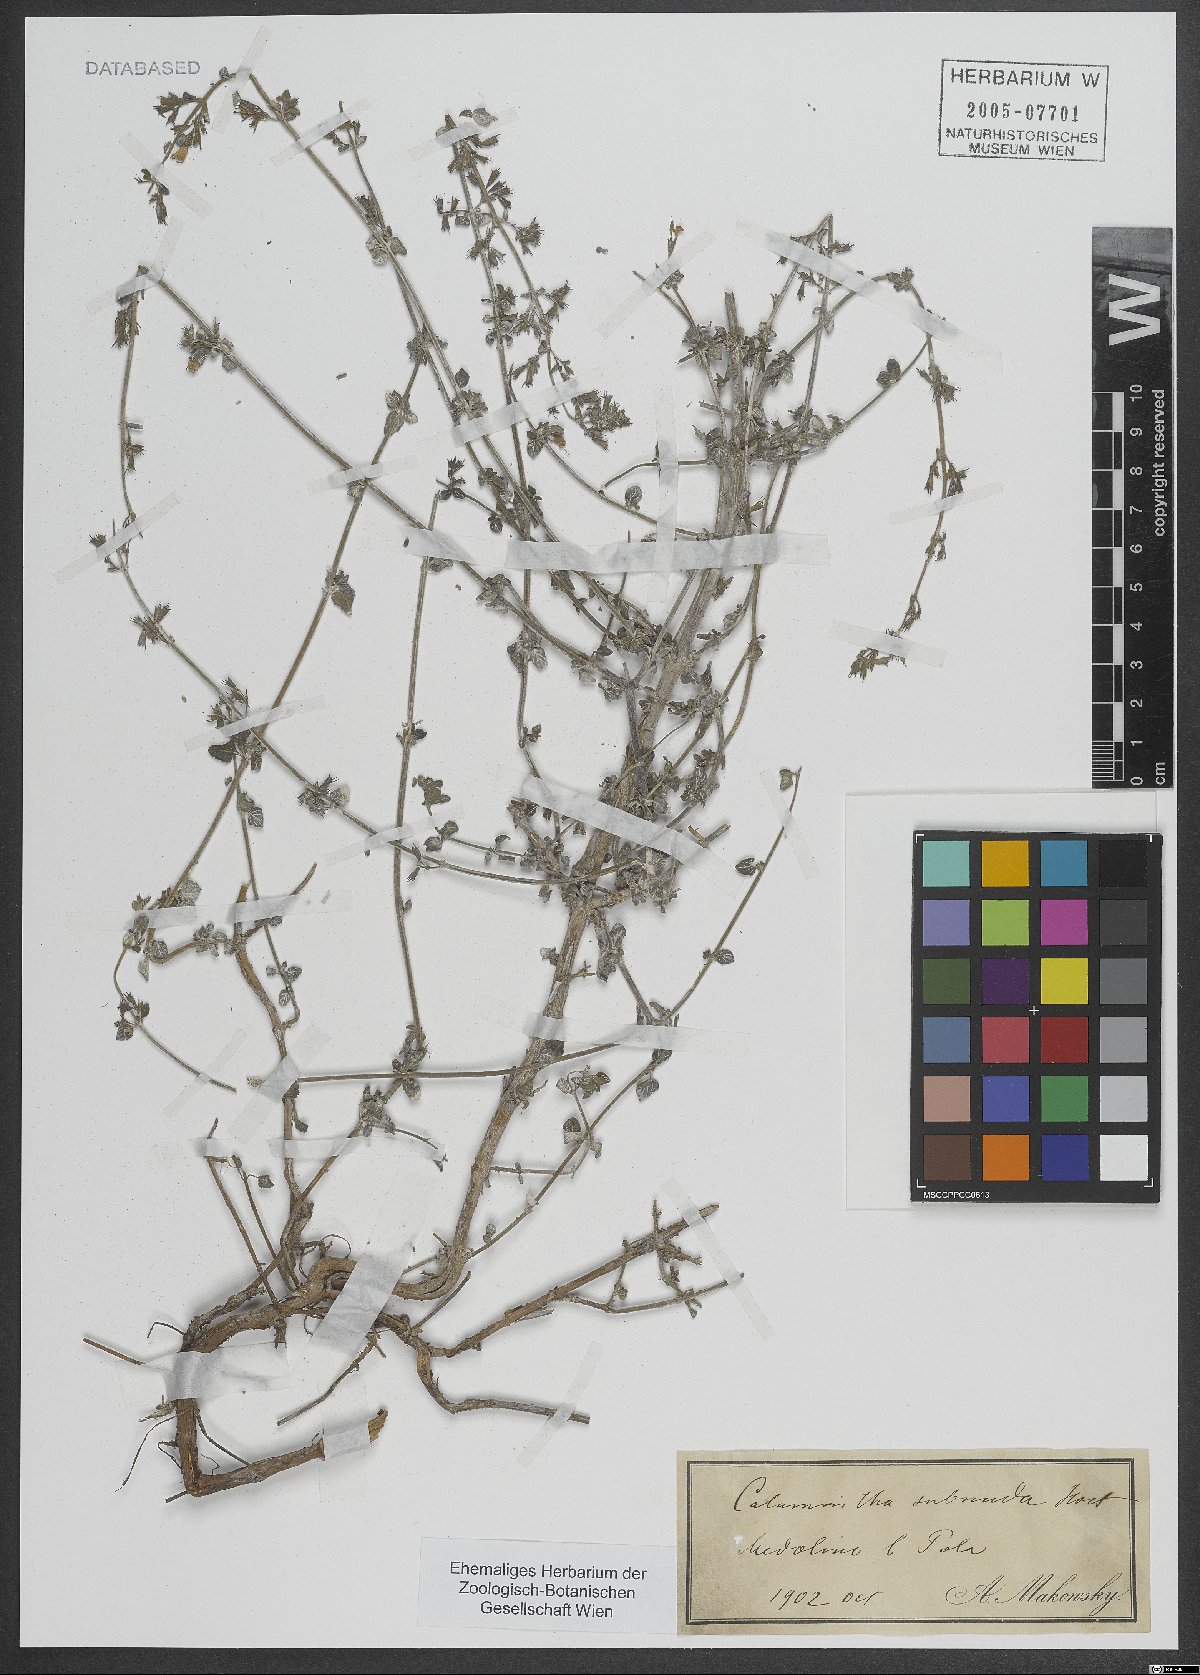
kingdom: Plantae
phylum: Tracheophyta
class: Magnoliopsida
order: Lamiales
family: Lamiaceae
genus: Clinopodium
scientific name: Clinopodium nepeta
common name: Lesser calamint
